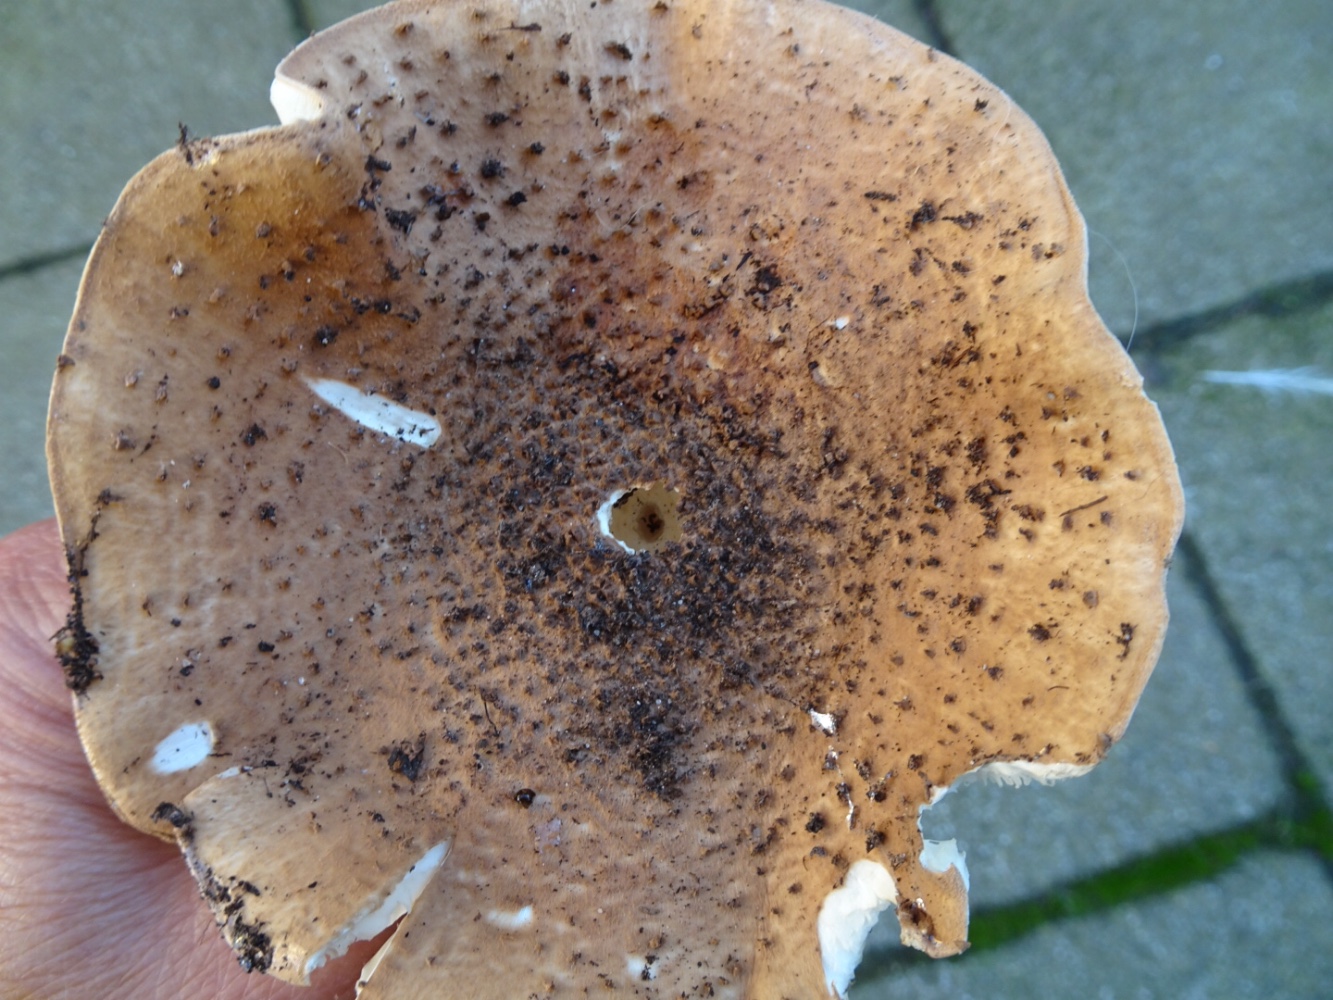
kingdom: Fungi
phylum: Basidiomycota
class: Agaricomycetes
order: Agaricales
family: Agaricaceae
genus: Echinoderma
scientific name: Echinoderma asperum
